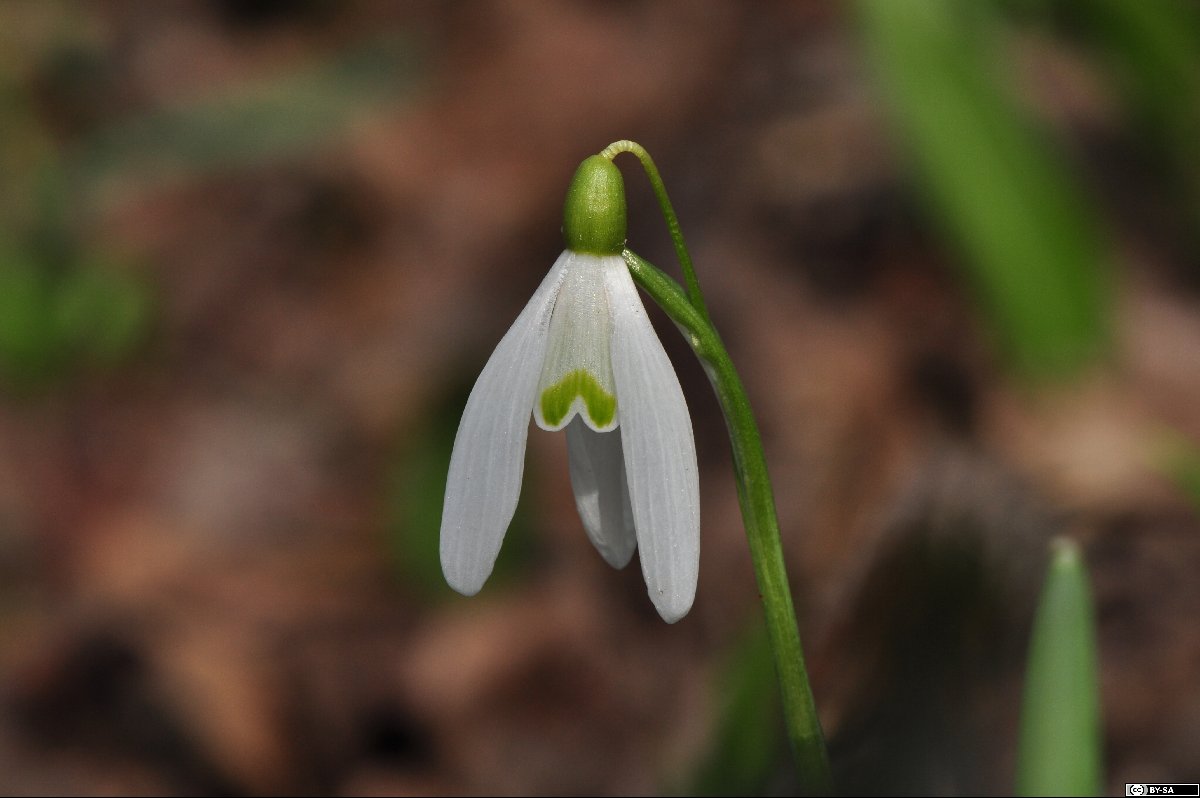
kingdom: Plantae
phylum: Tracheophyta
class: Liliopsida
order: Asparagales
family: Amaryllidaceae
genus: Galanthus
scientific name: Galanthus nivalis
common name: Snowdrop
